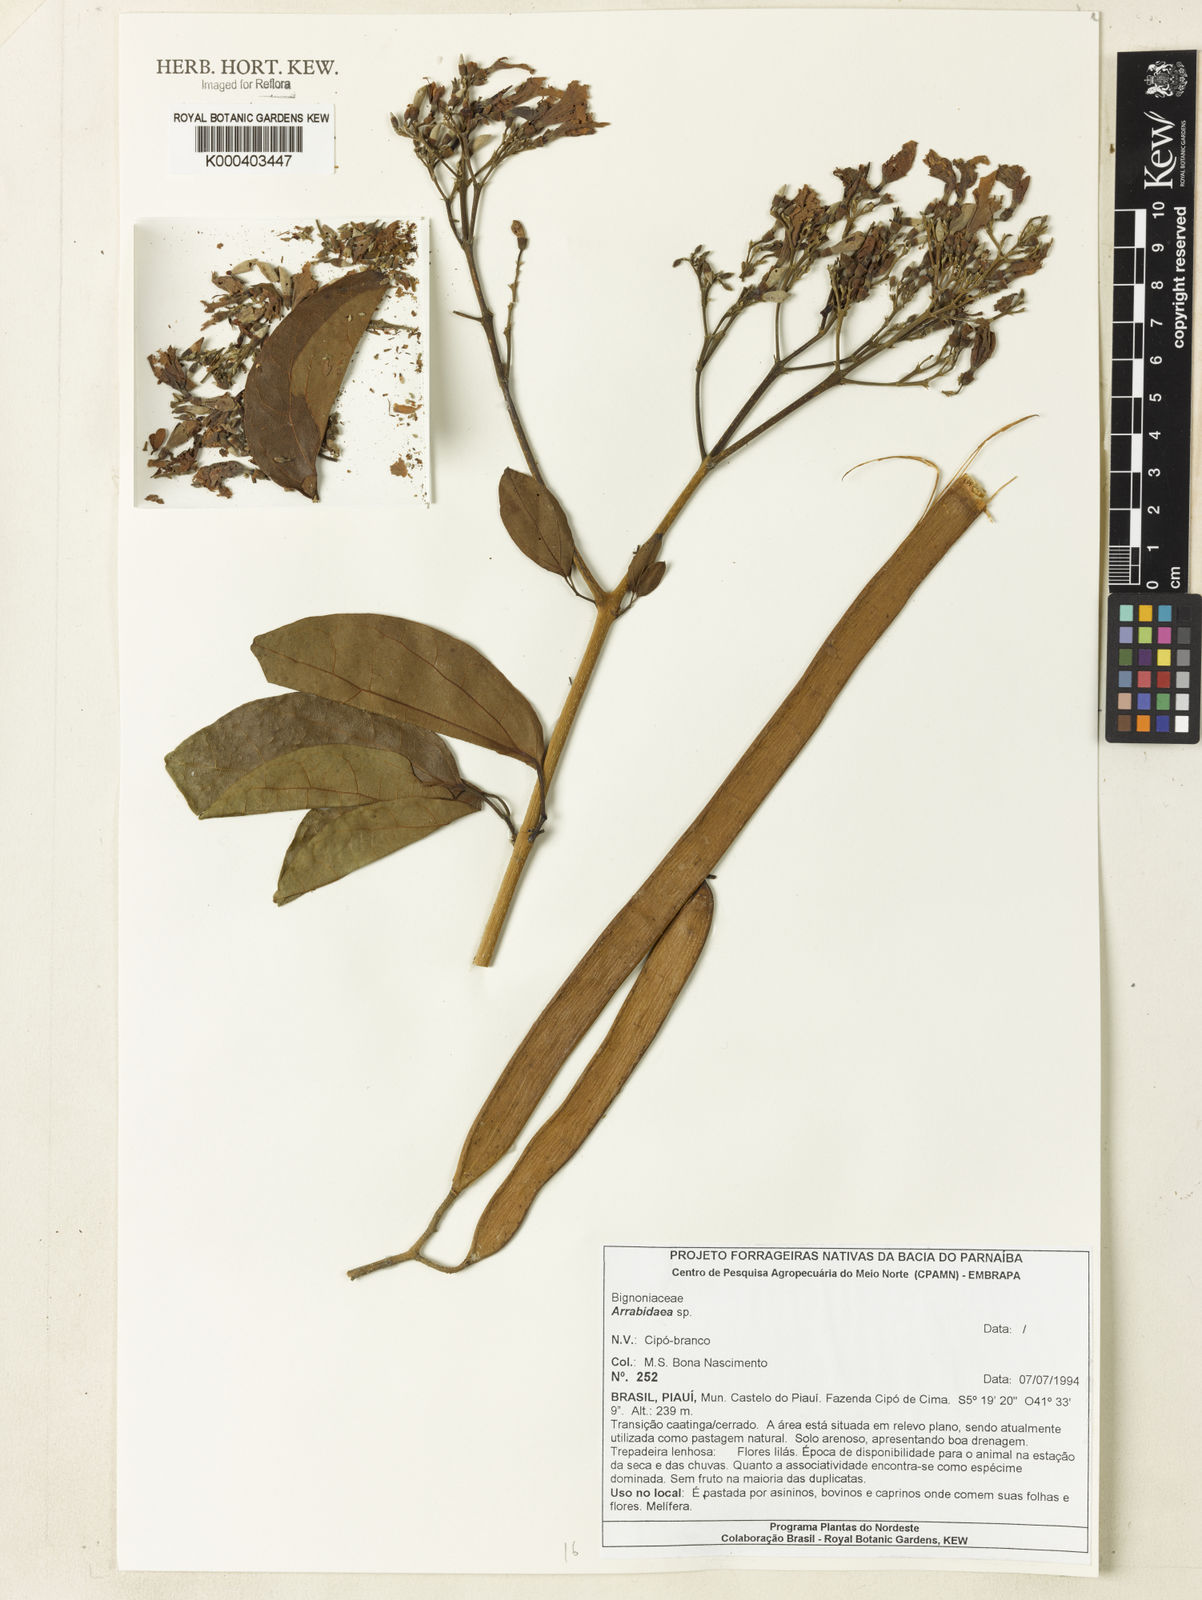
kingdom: Plantae
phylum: Tracheophyta
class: Magnoliopsida
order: Rosales
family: Rhamnaceae
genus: Arrabidaea
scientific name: Arrabidaea
